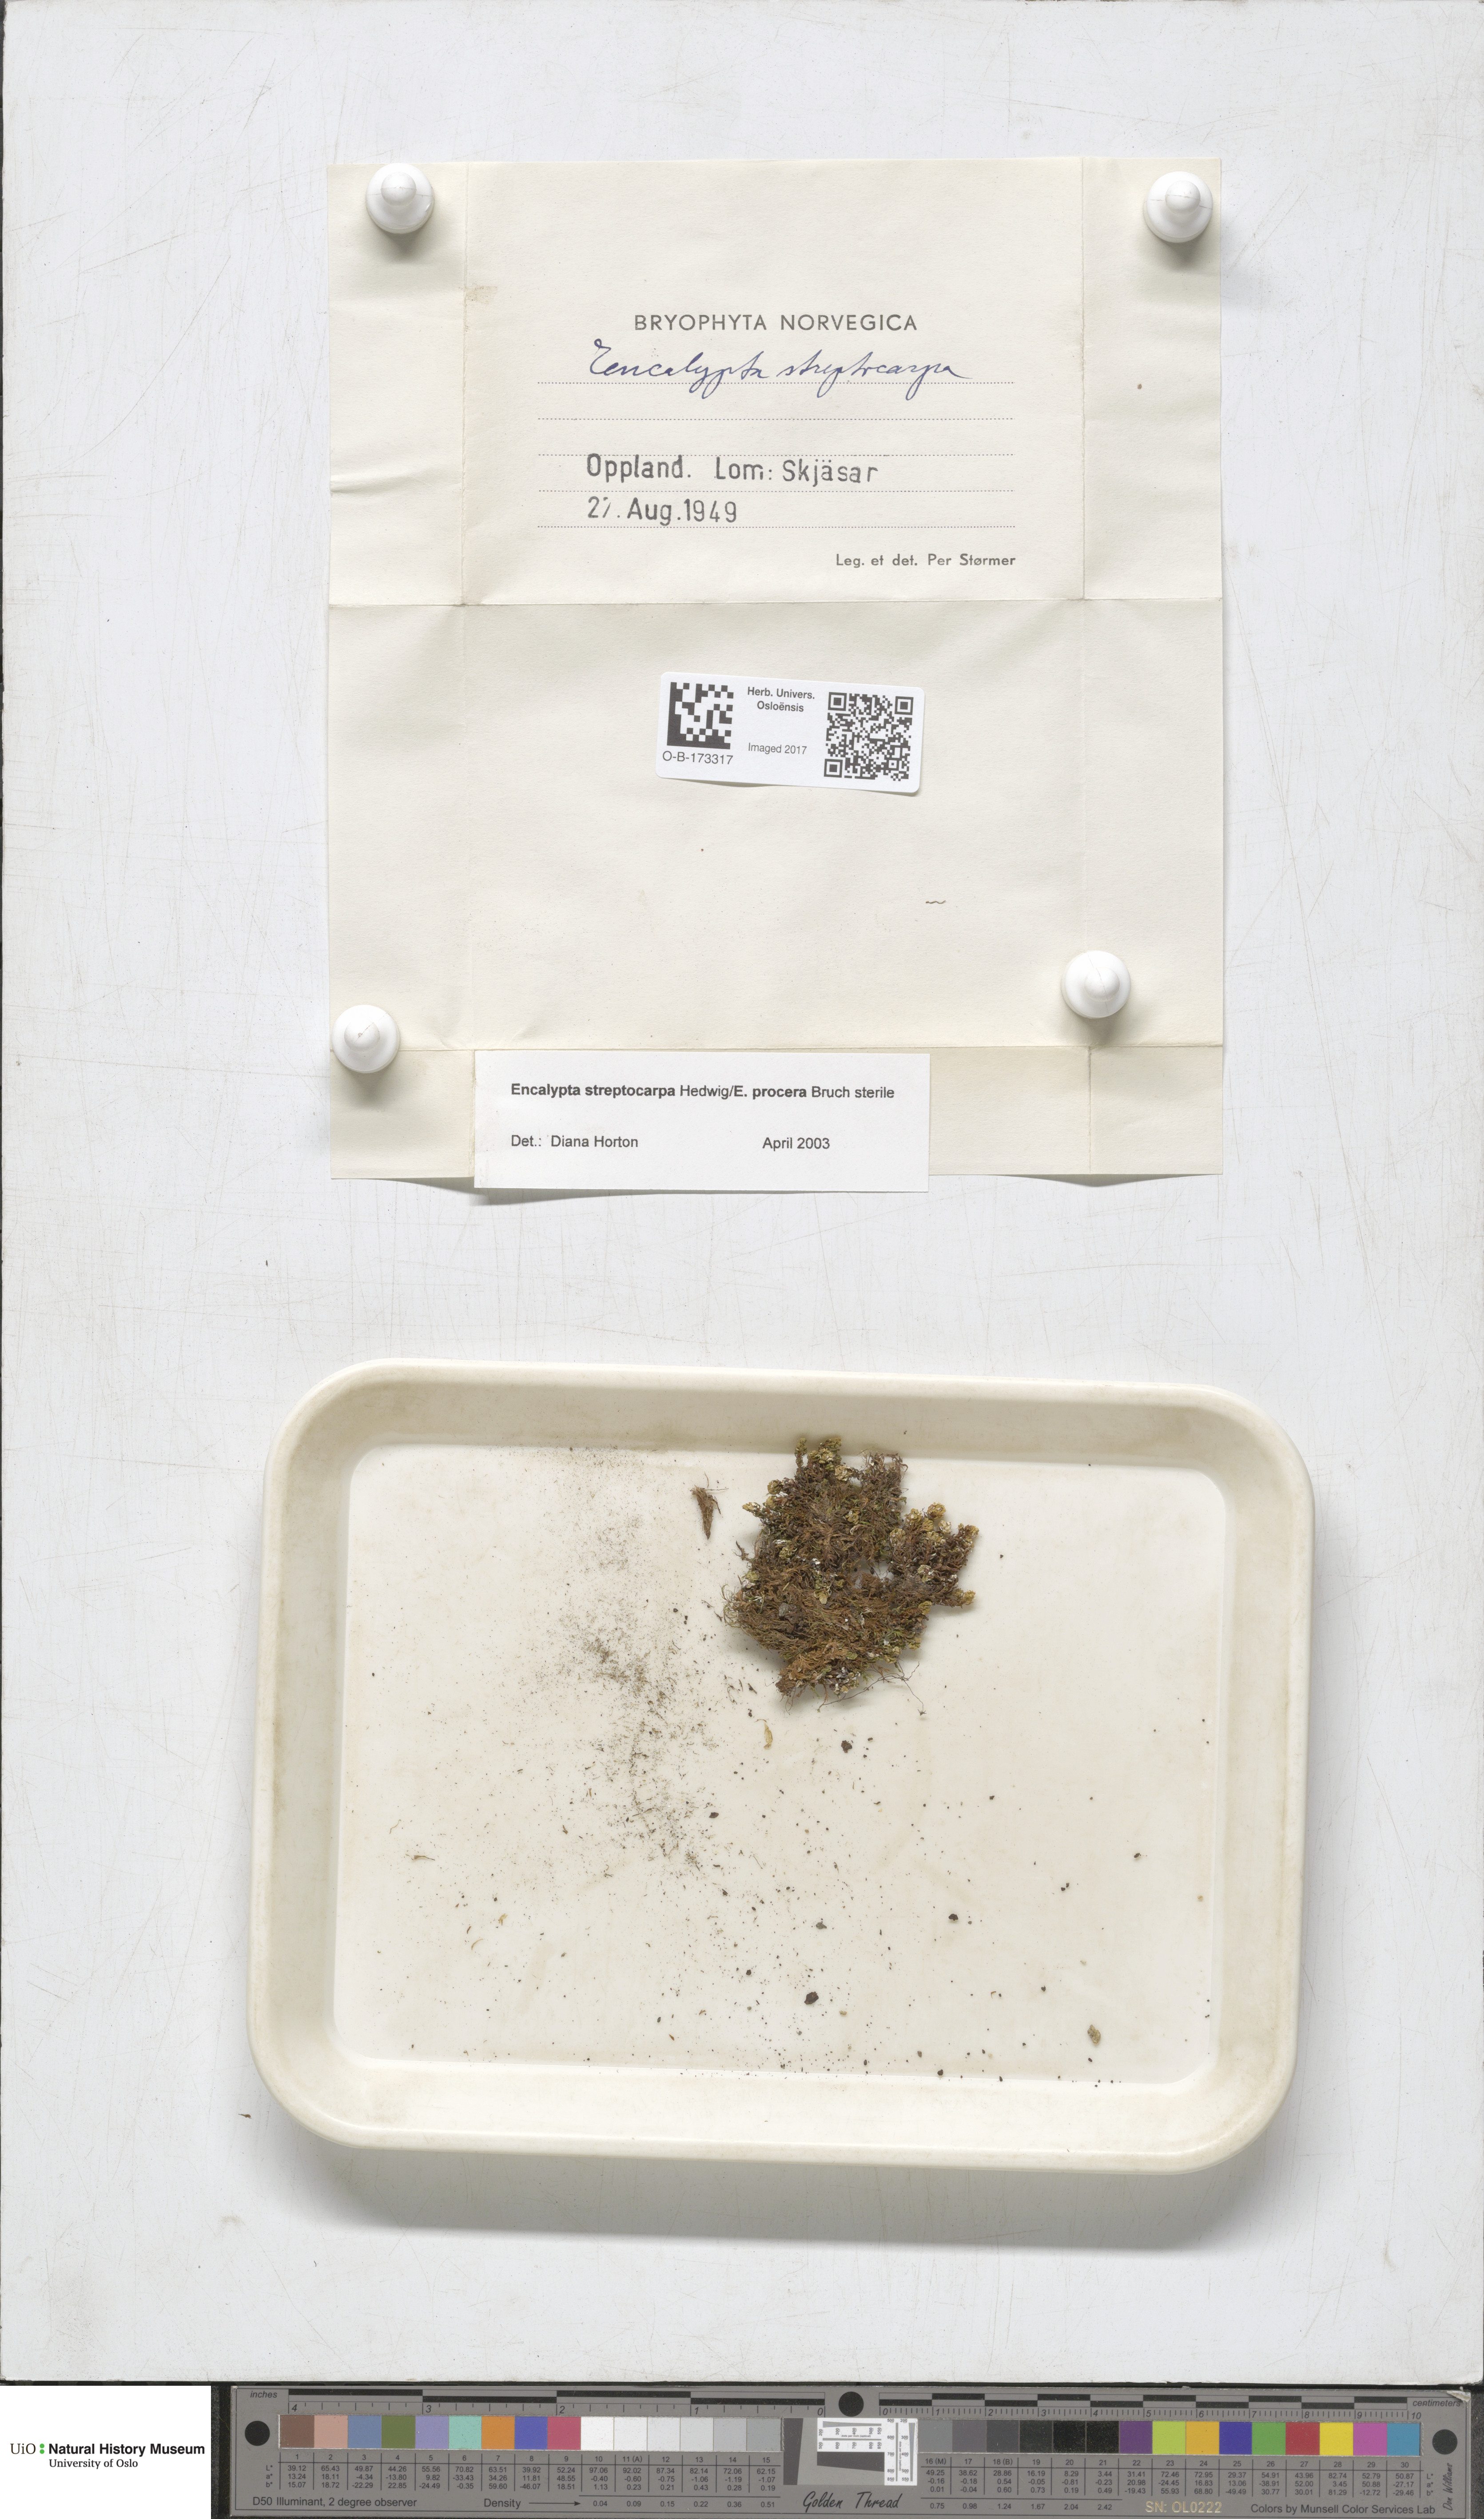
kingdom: Plantae
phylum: Bryophyta
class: Bryopsida
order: Encalyptales
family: Encalyptaceae
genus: Encalypta
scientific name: Encalypta
